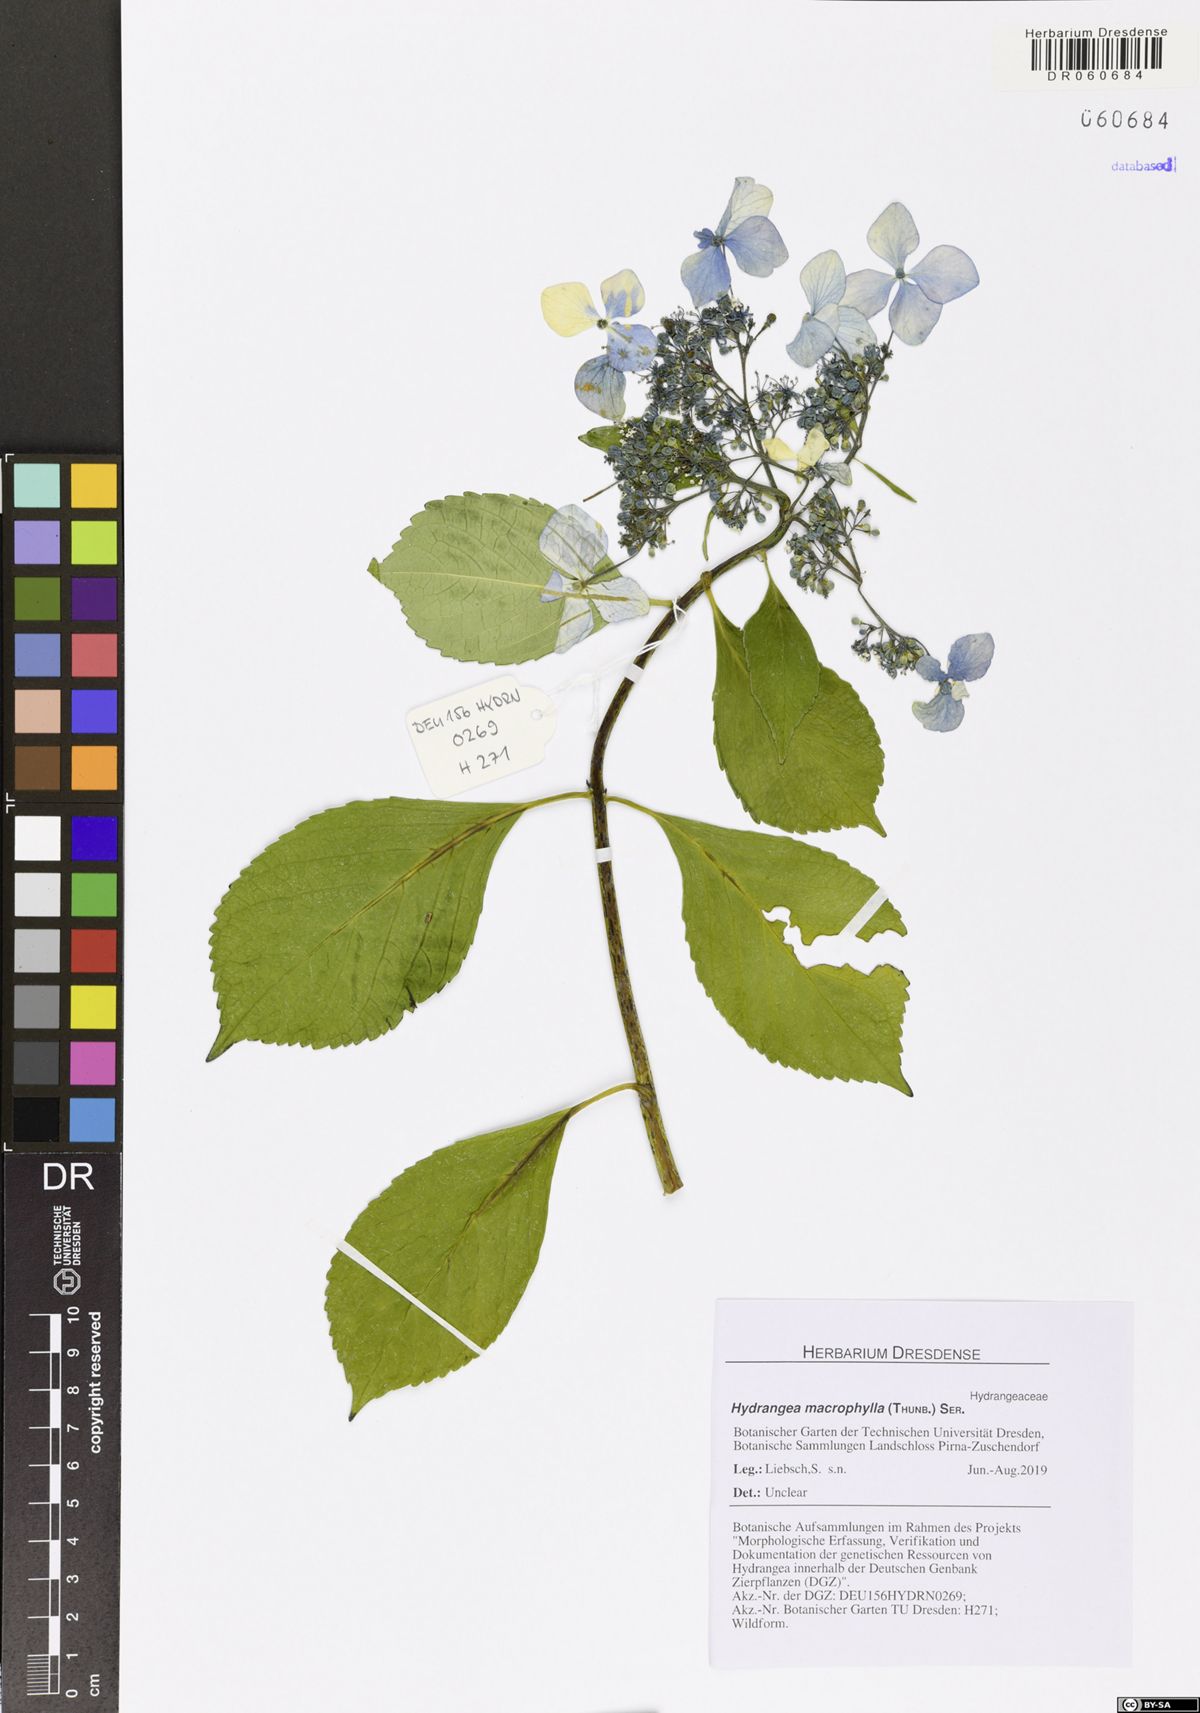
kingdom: Plantae
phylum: Tracheophyta
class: Magnoliopsida
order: Cornales
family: Hydrangeaceae
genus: Hydrangea
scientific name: Hydrangea macrophylla
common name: Hydrangea
